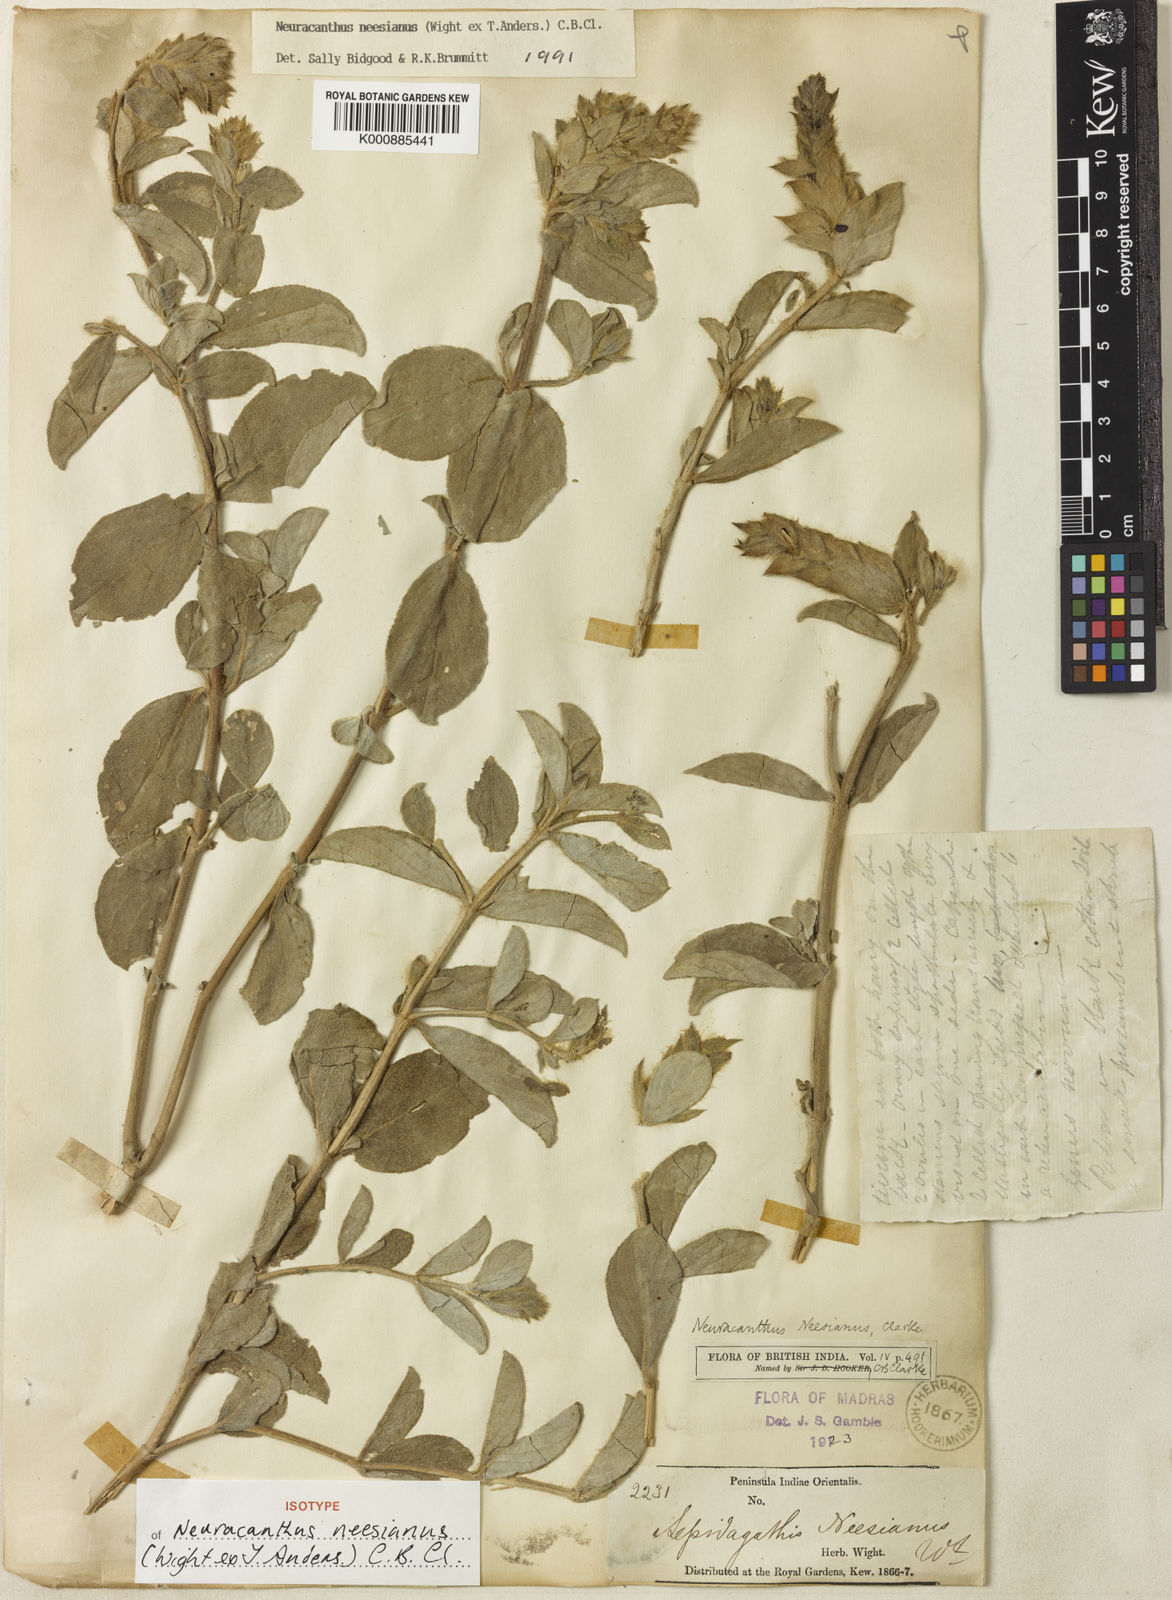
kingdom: Plantae
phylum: Tracheophyta
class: Magnoliopsida
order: Lamiales
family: Acanthaceae
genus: Neuracanthus
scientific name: Neuracanthus neesianus
